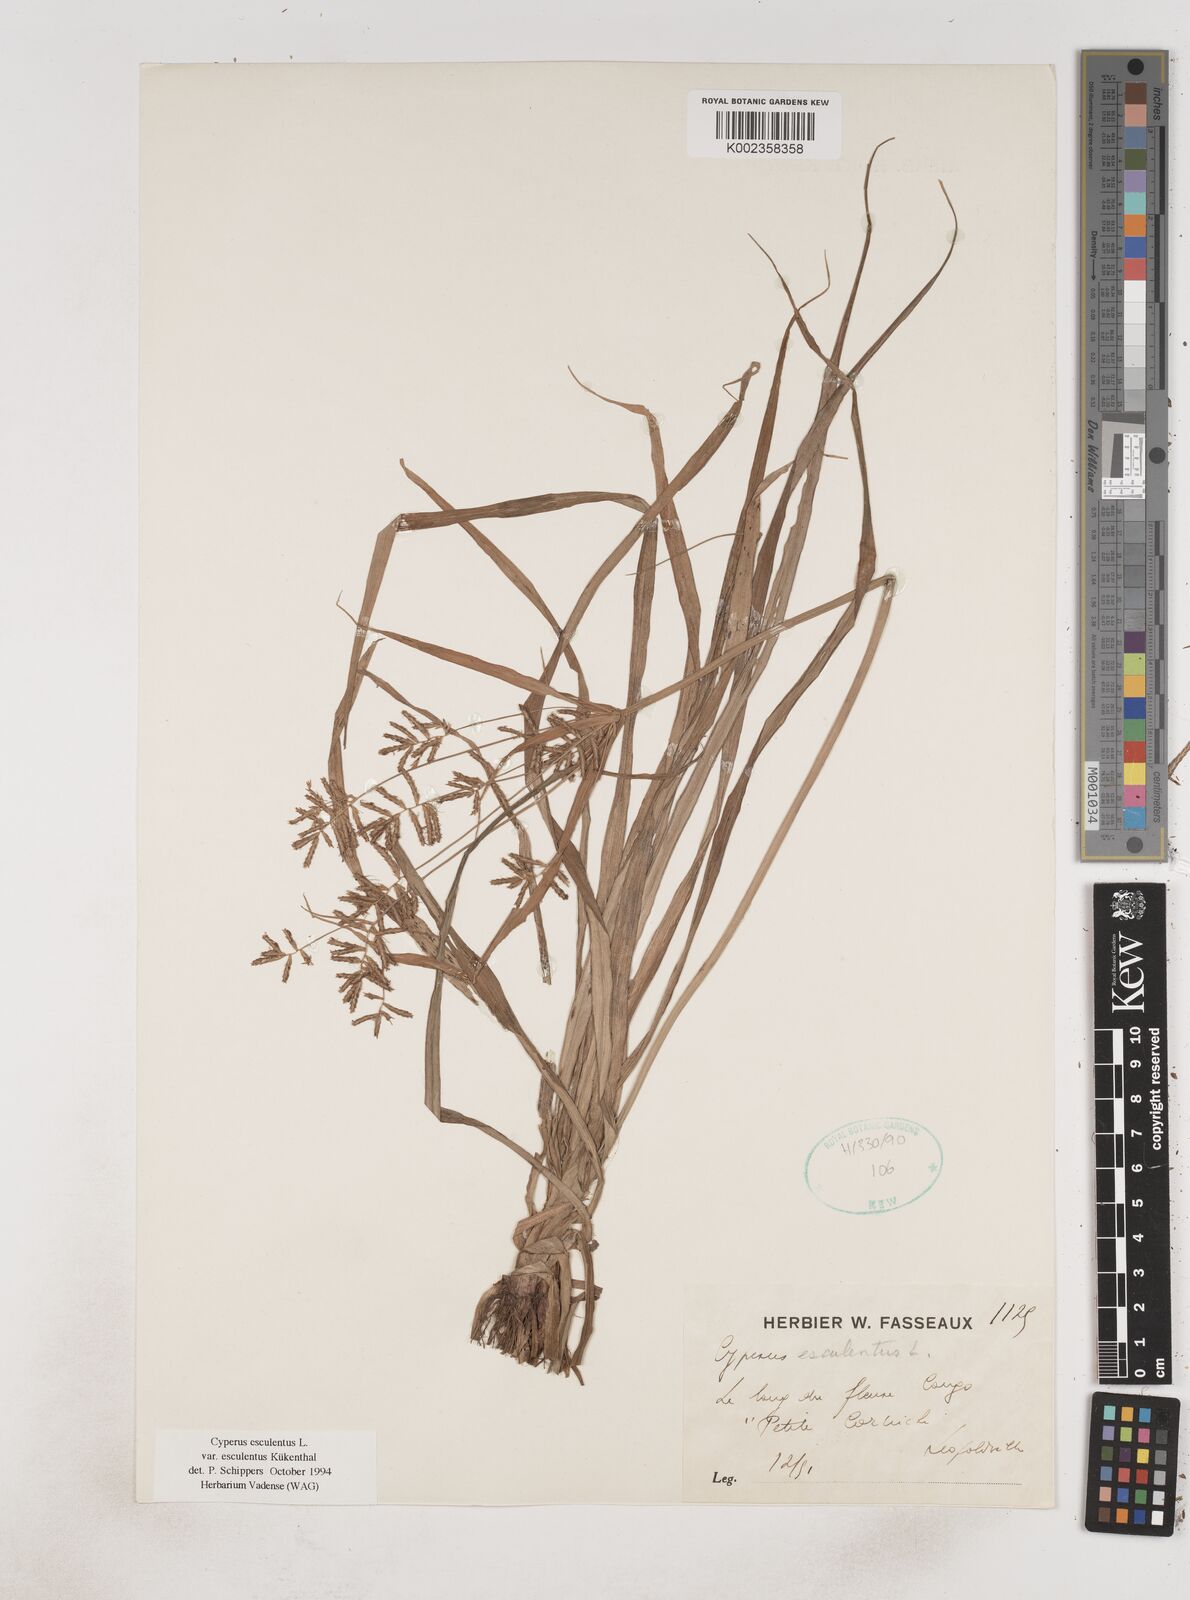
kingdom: Plantae
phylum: Tracheophyta
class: Liliopsida
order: Poales
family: Cyperaceae
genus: Cyperus
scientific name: Cyperus esculentus
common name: Yellow nutsedge
